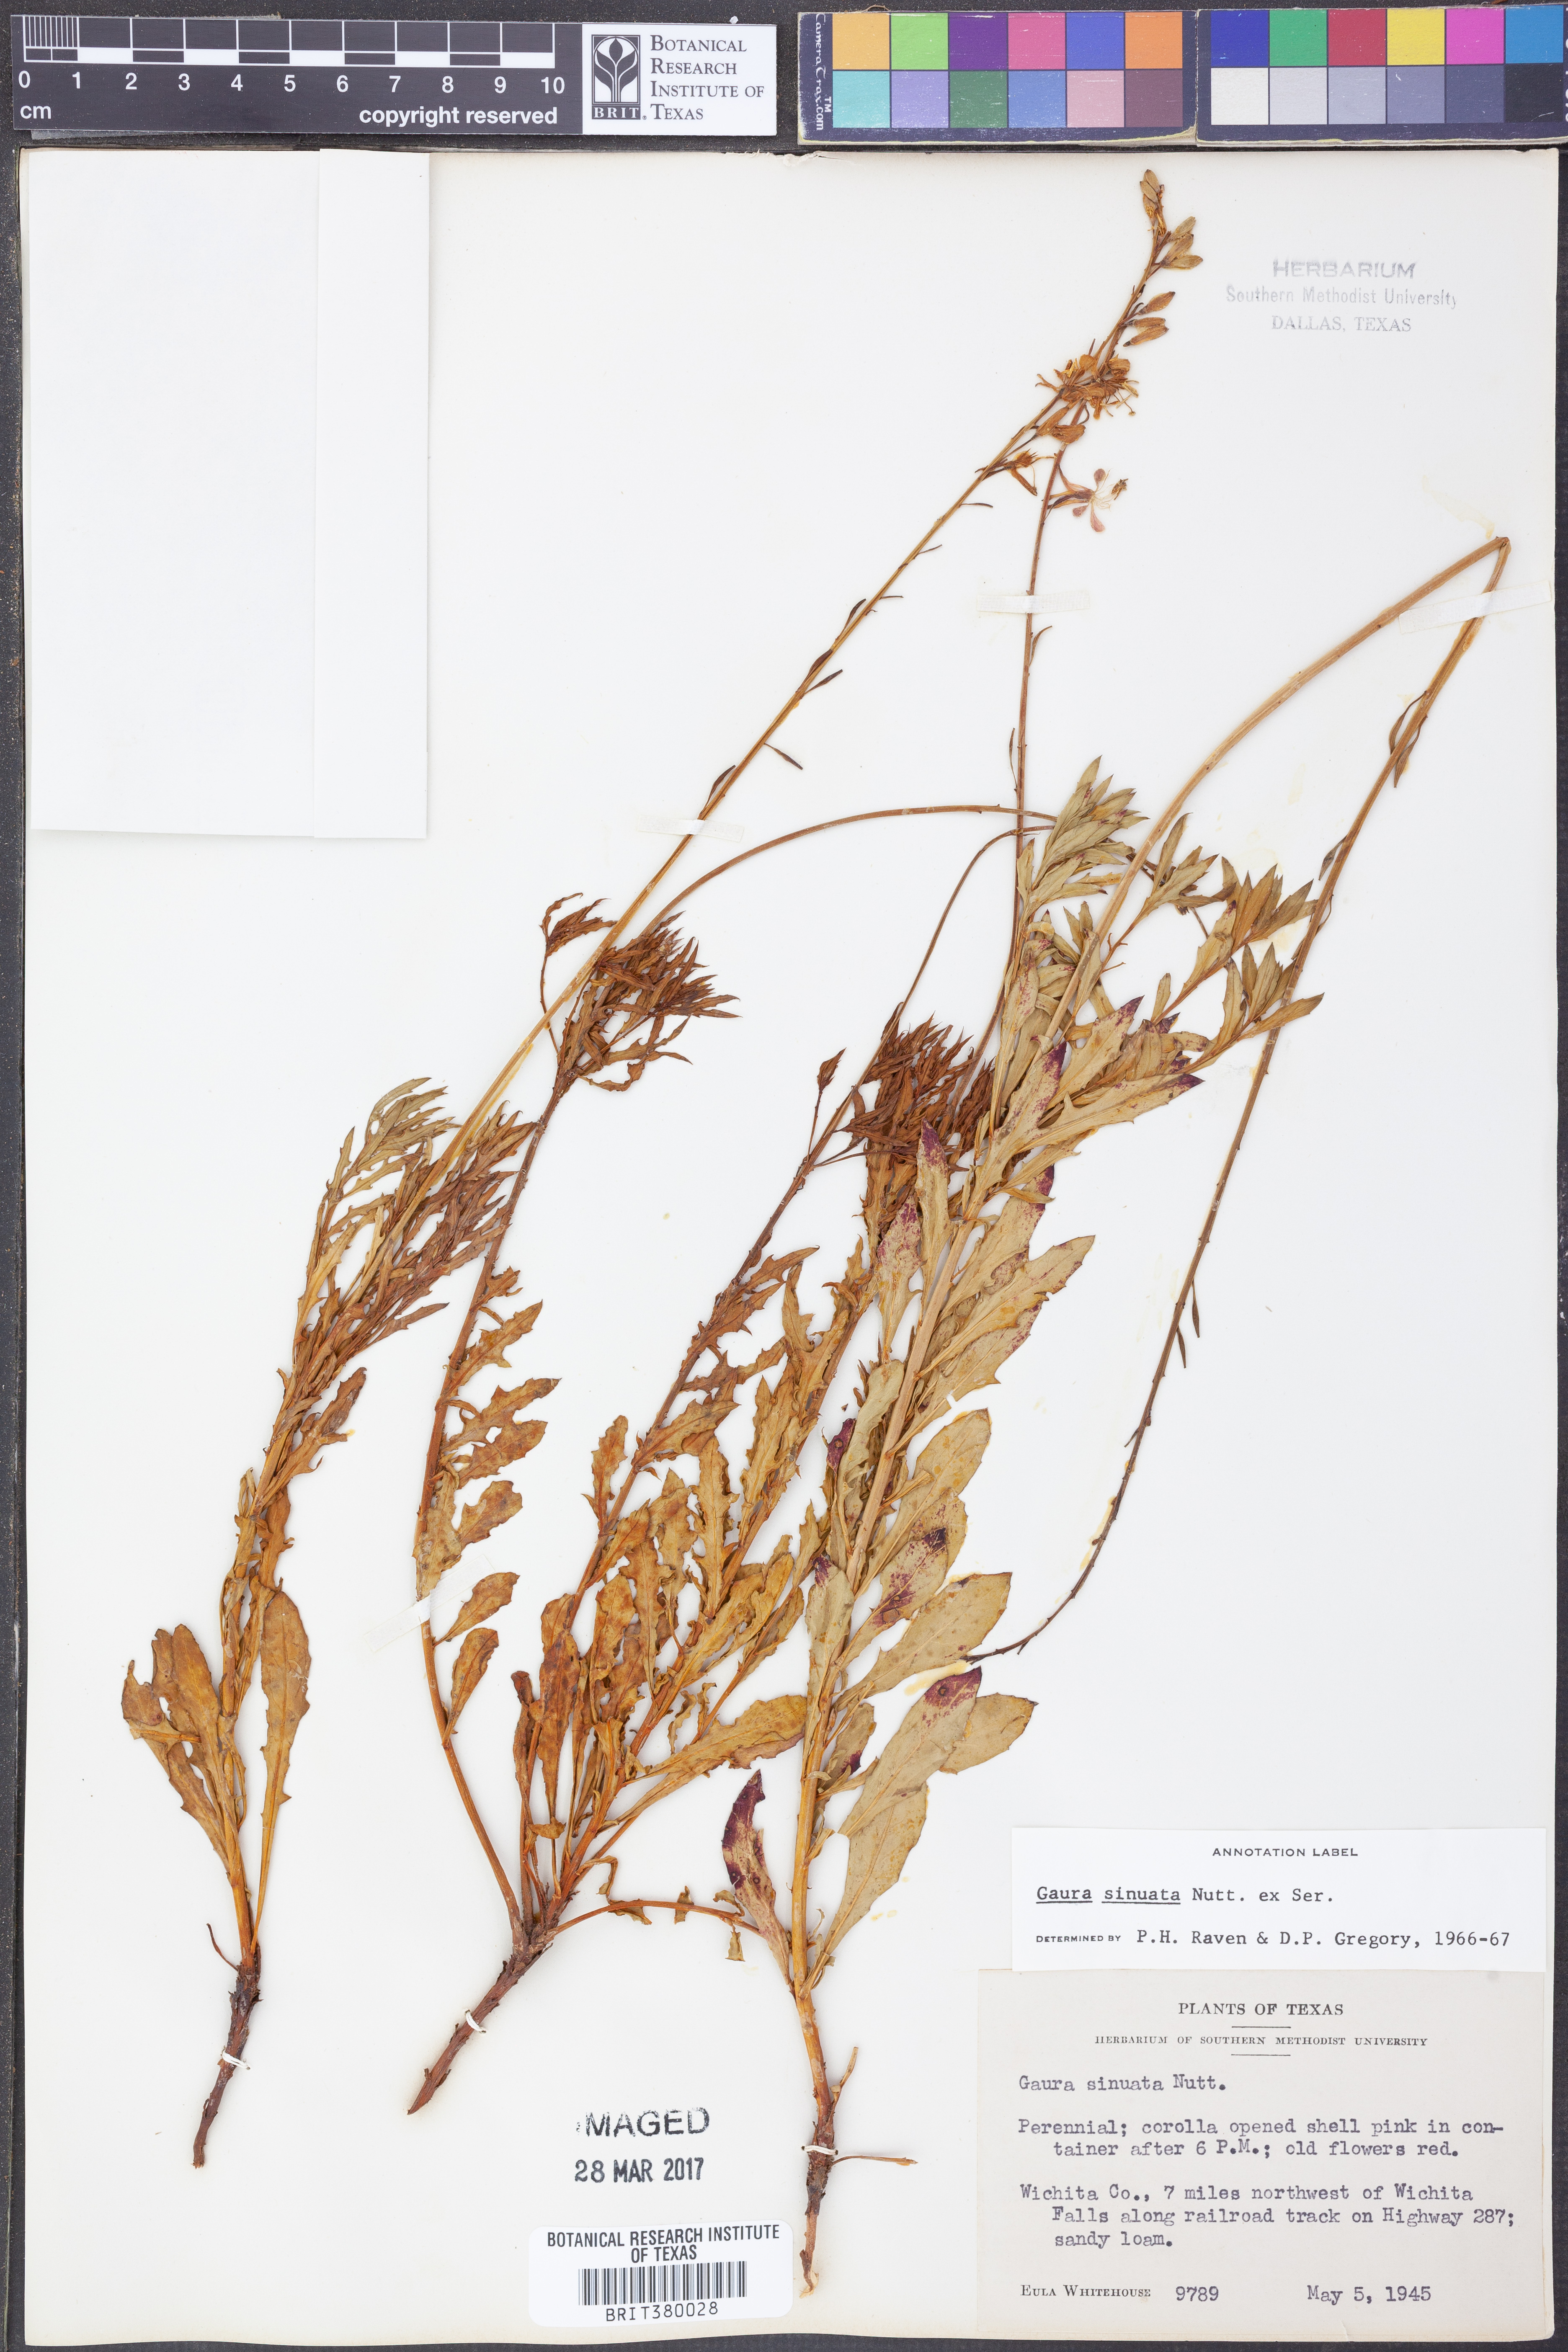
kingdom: Plantae
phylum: Tracheophyta
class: Magnoliopsida
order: Myrtales
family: Onagraceae
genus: Oenothera
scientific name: Oenothera sinuosa
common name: Wavyleaf beeblossom
